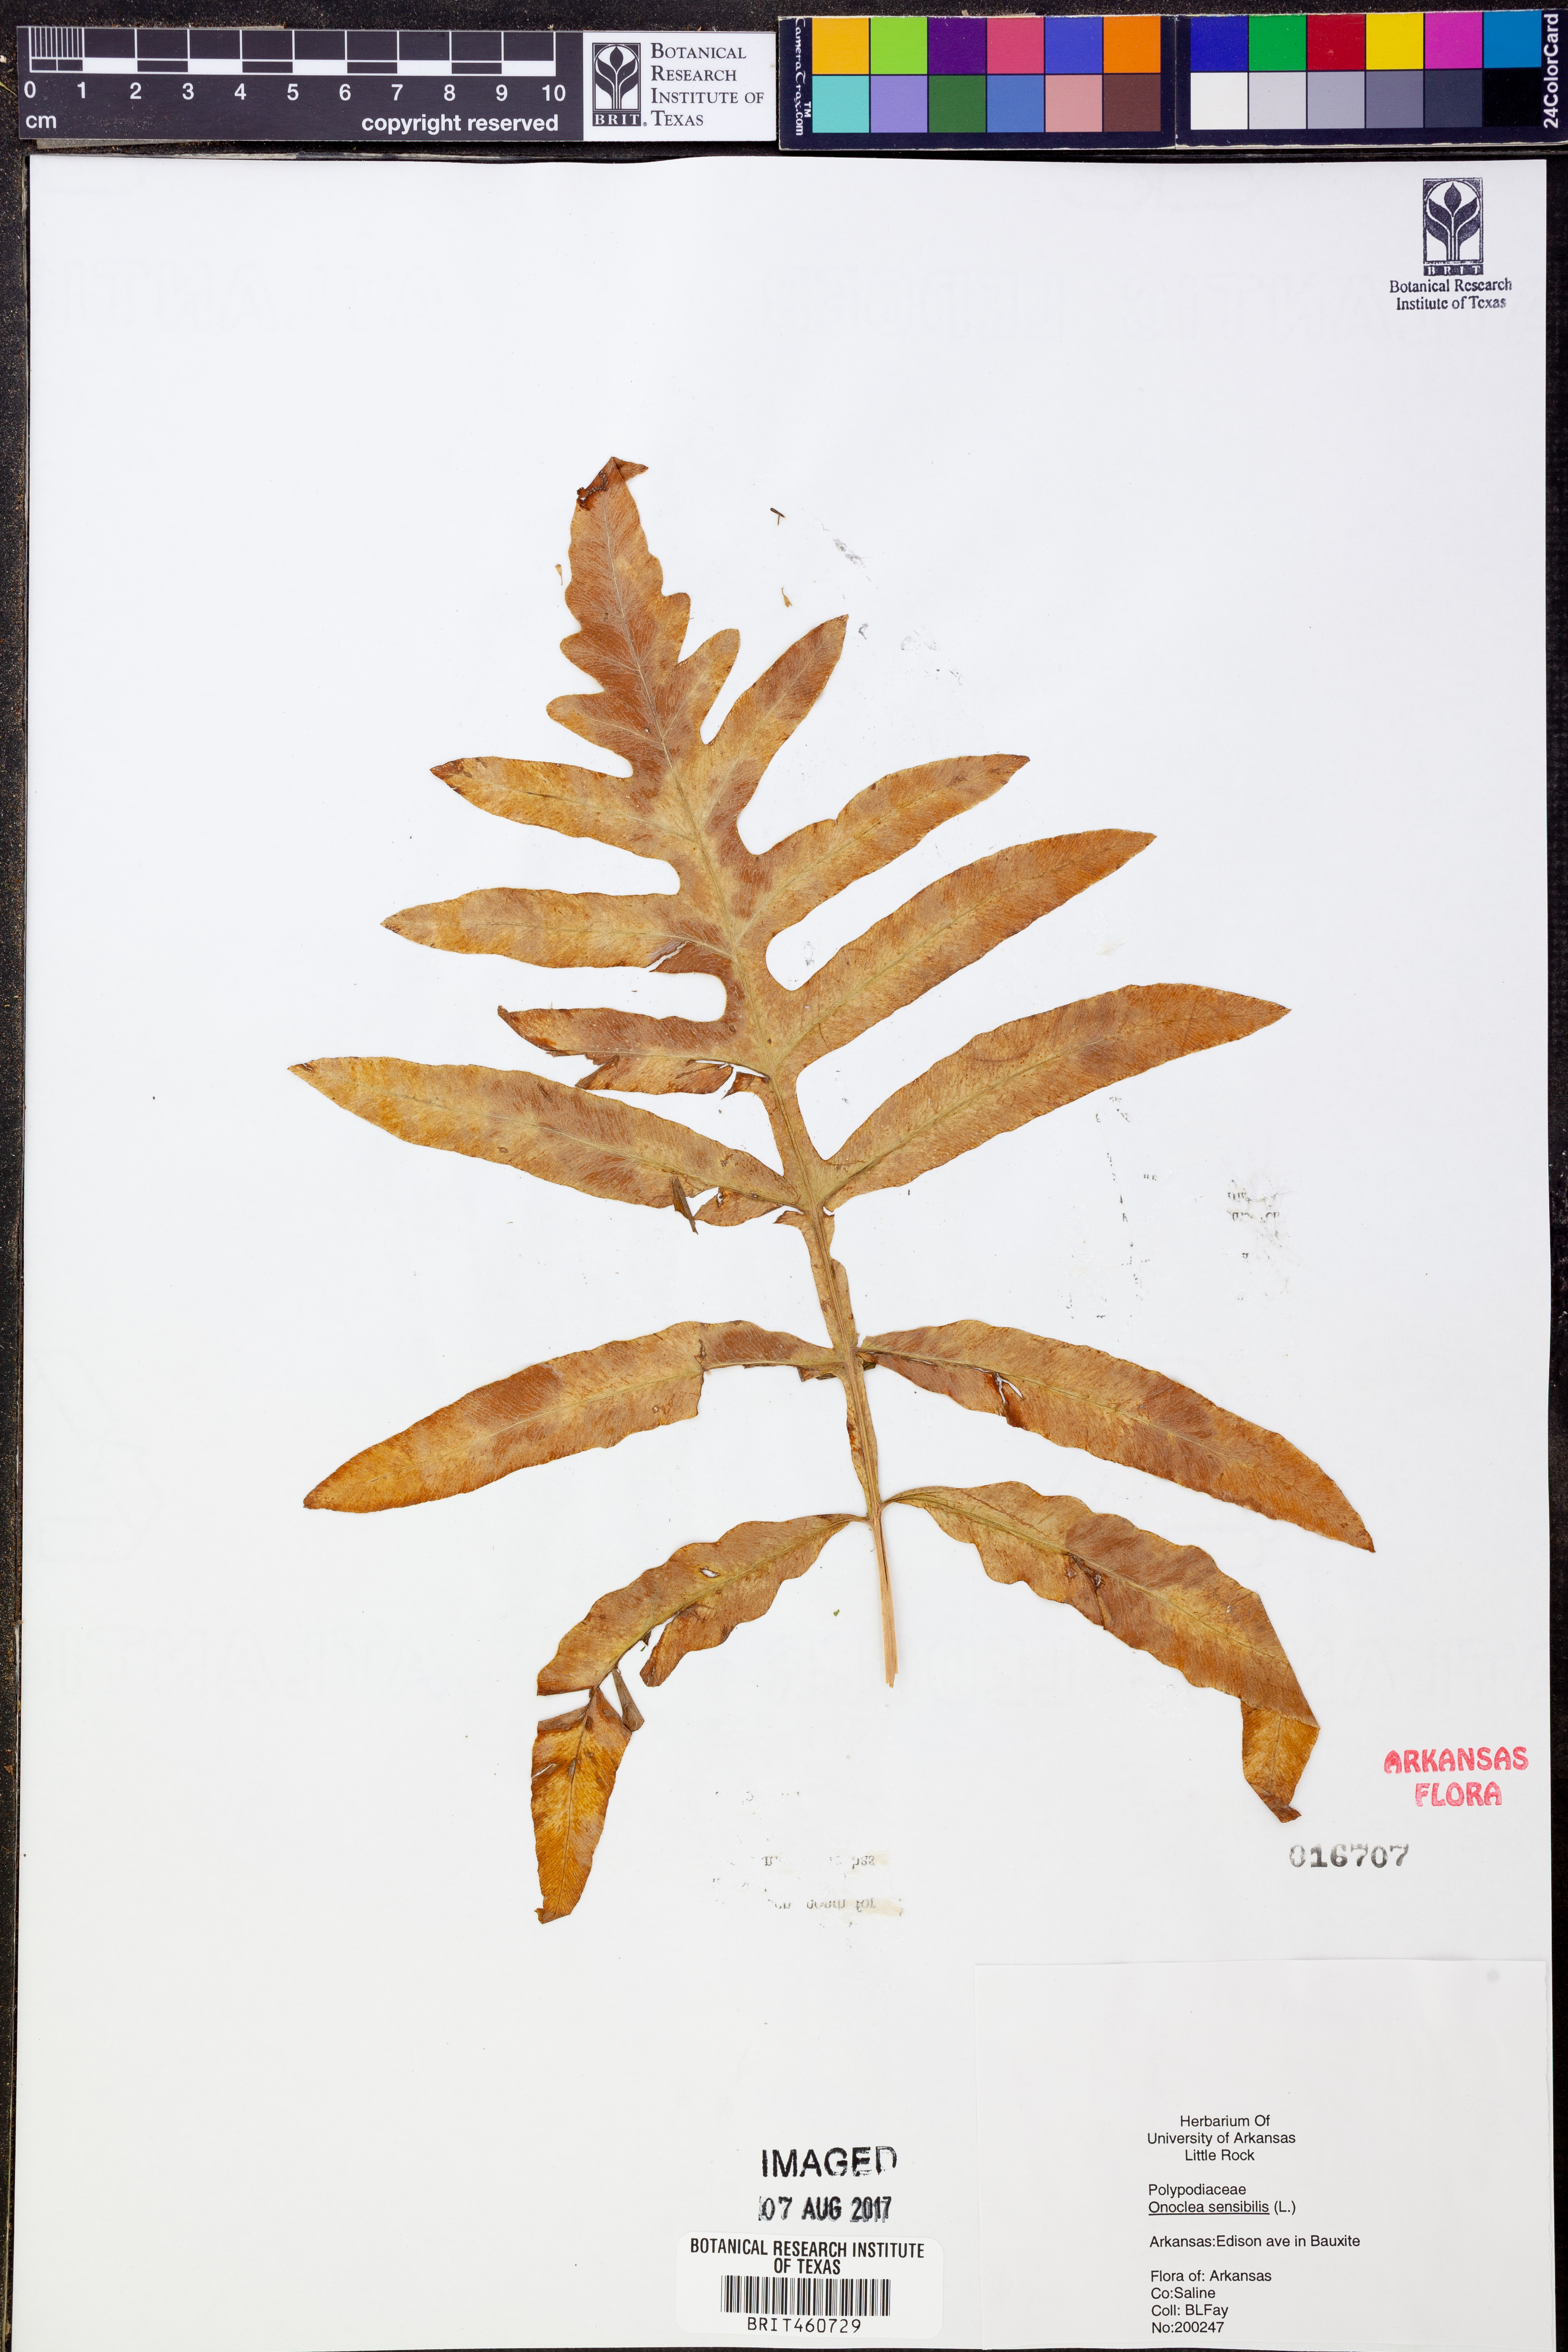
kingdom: Plantae
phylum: Tracheophyta
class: Polypodiopsida
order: Polypodiales
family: Onocleaceae
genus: Onoclea
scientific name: Onoclea sensibilis
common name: Sensitive fern
